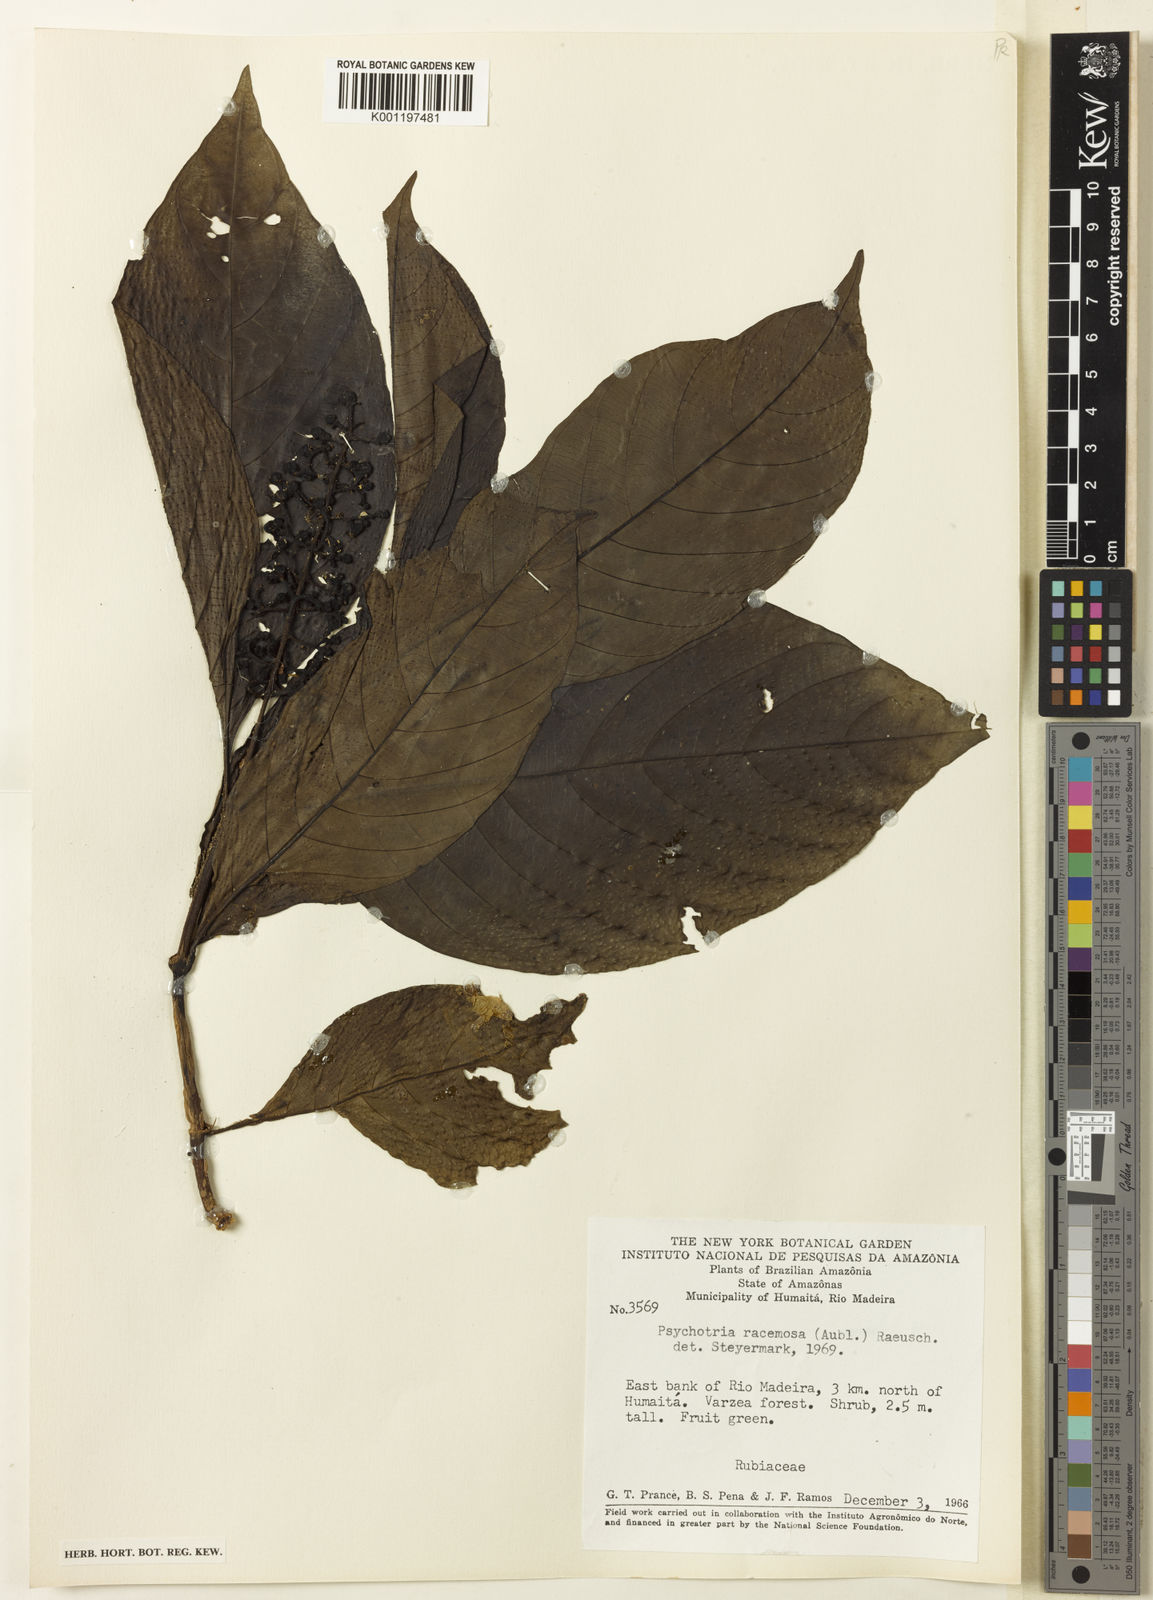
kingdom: Plantae
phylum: Tracheophyta
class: Magnoliopsida
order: Gentianales
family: Rubiaceae
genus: Palicourea
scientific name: Palicourea racemosa
